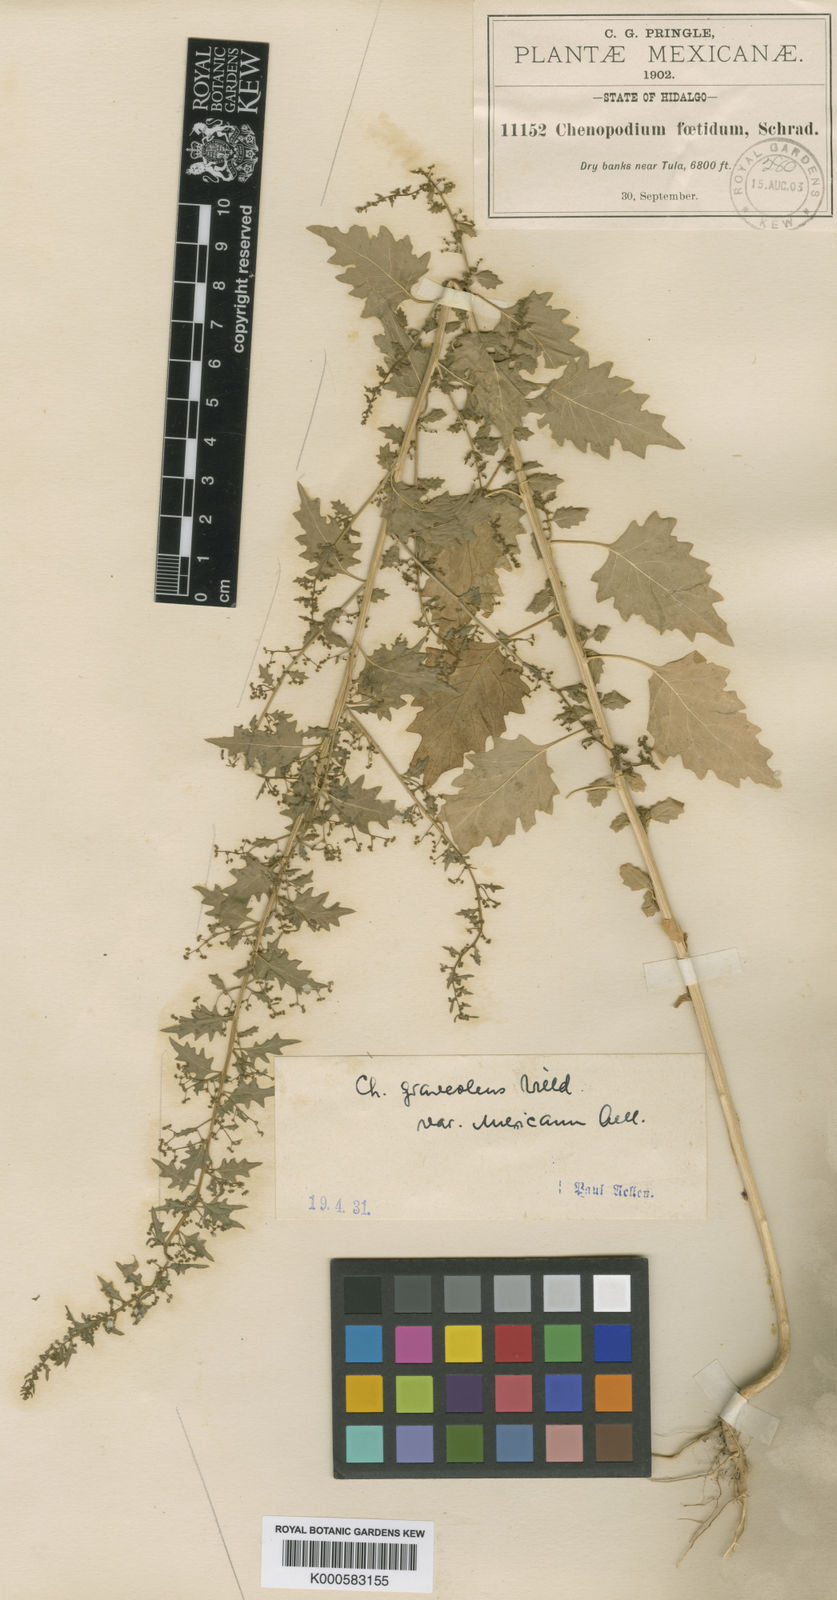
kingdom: Plantae
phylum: Tracheophyta
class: Magnoliopsida
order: Caryophyllales
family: Amaranthaceae
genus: Dysphania
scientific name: Dysphania graveolens
